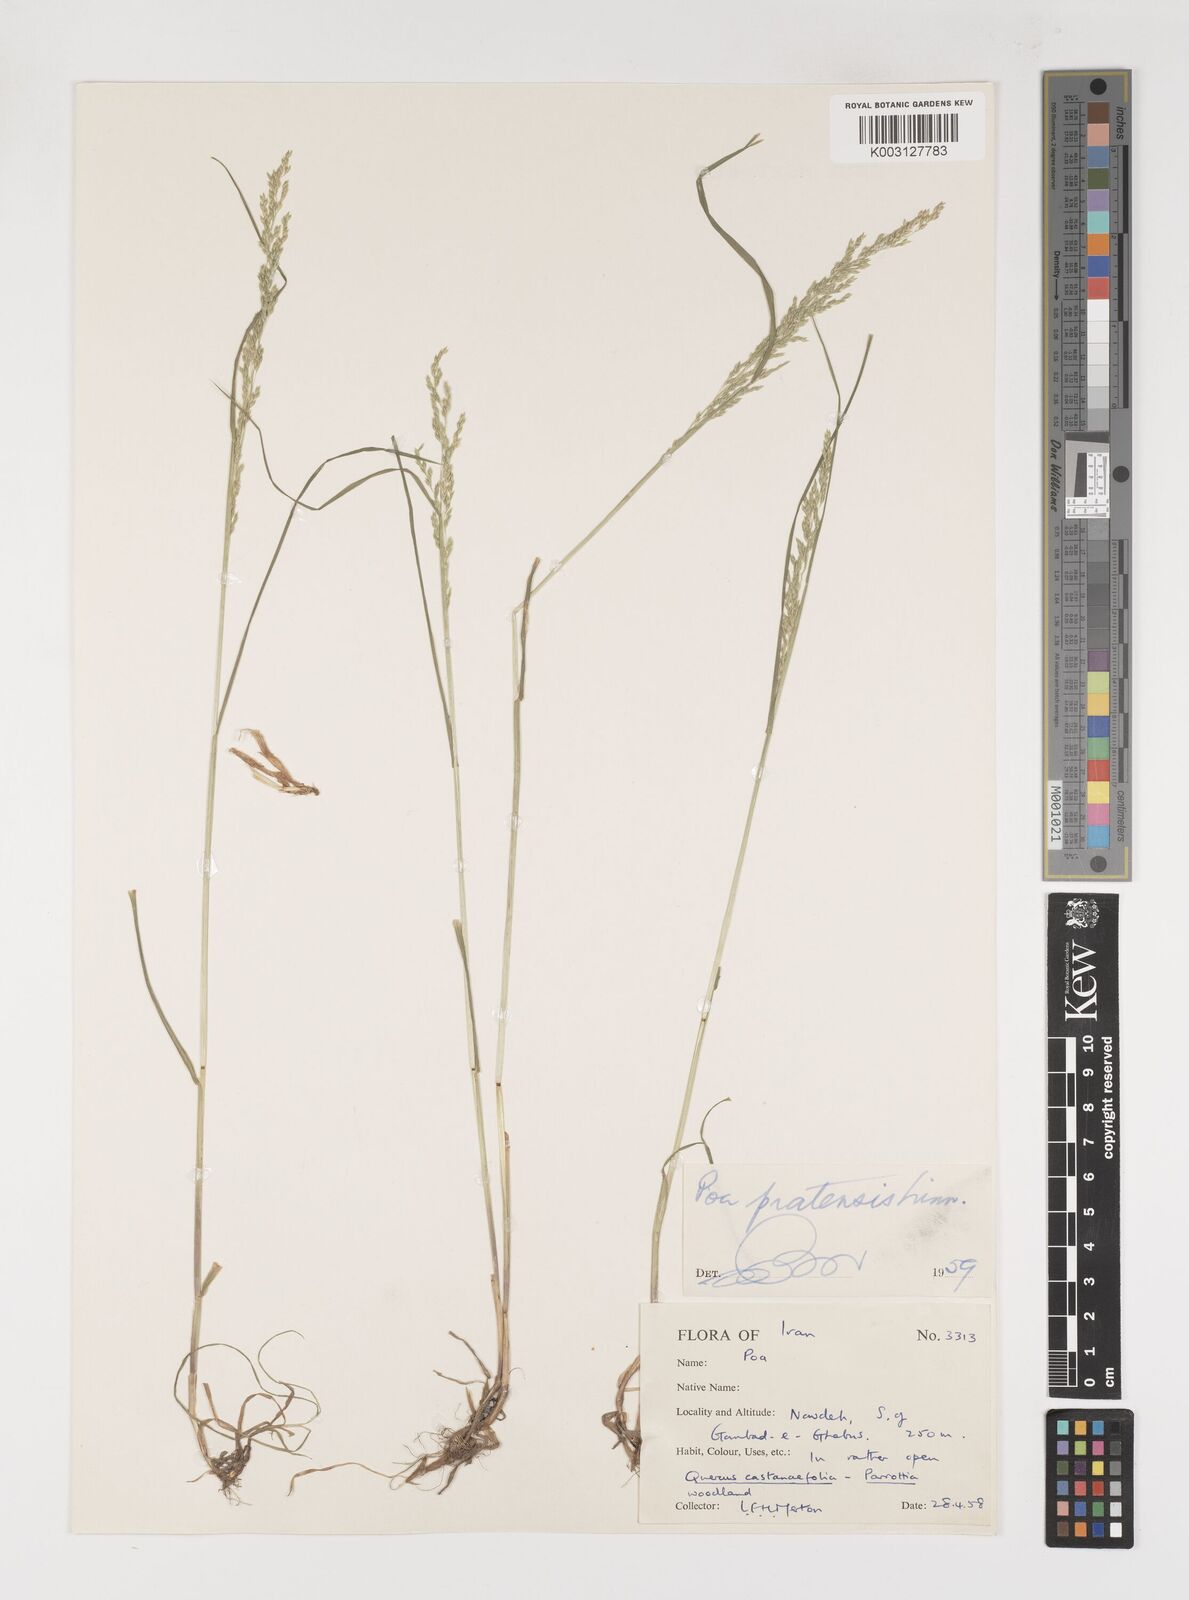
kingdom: Plantae
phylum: Tracheophyta
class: Liliopsida
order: Poales
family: Poaceae
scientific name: Poaceae
